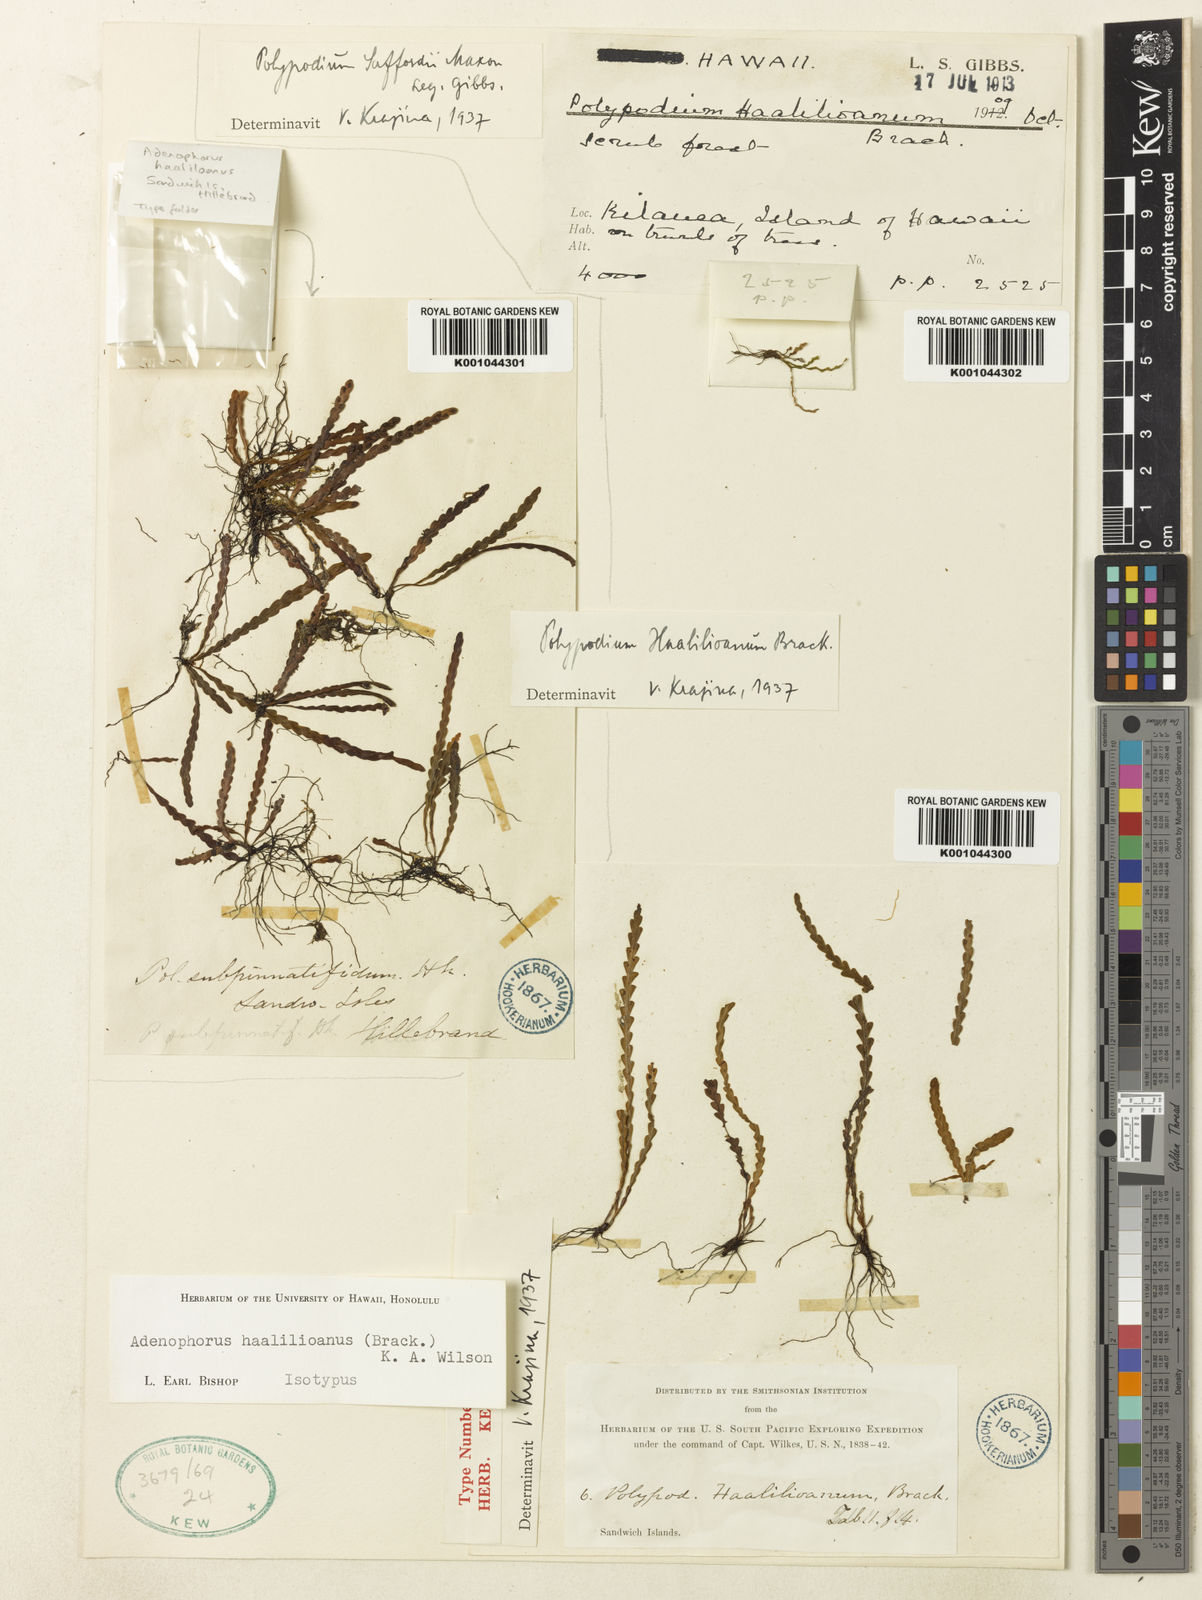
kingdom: Plantae
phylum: Tracheophyta
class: Polypodiopsida
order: Polypodiales
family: Polypodiaceae
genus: Adenophorus
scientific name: Adenophorus haalilioanus
